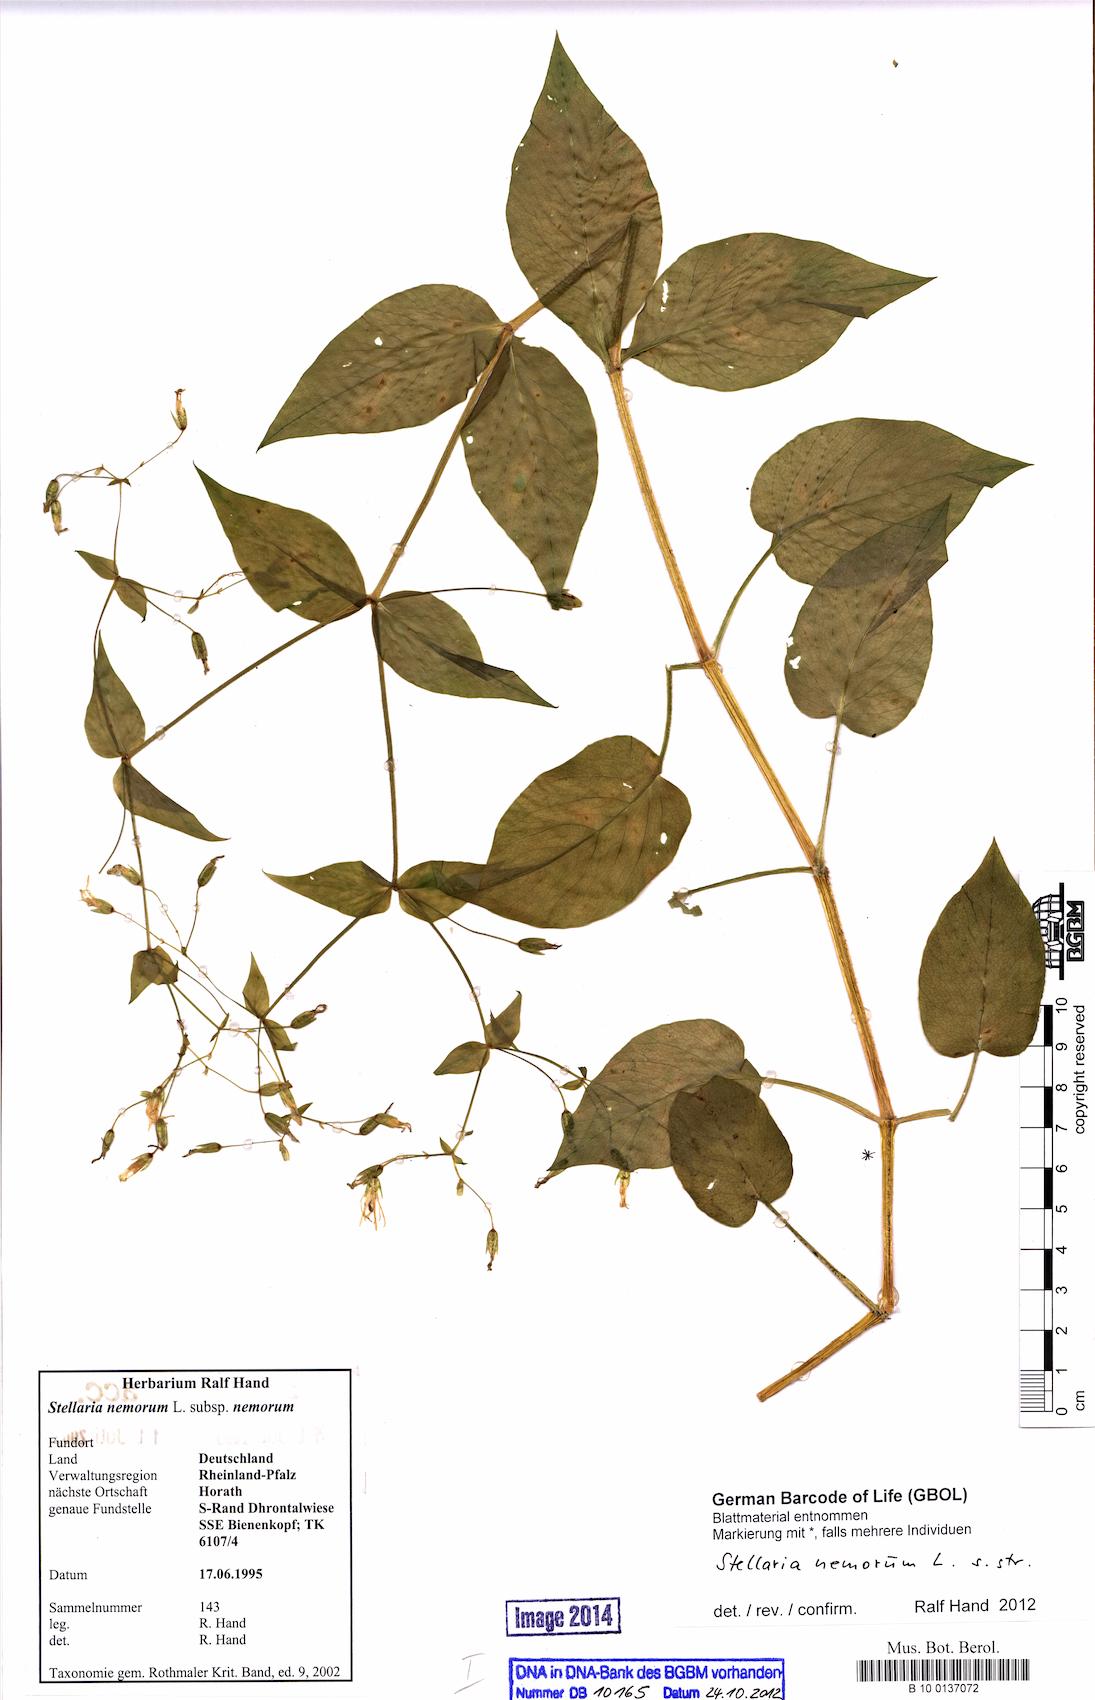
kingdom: Plantae
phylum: Tracheophyta
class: Magnoliopsida
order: Caryophyllales
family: Caryophyllaceae
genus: Stellaria
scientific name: Stellaria nemorum
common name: Wood stitchwort
